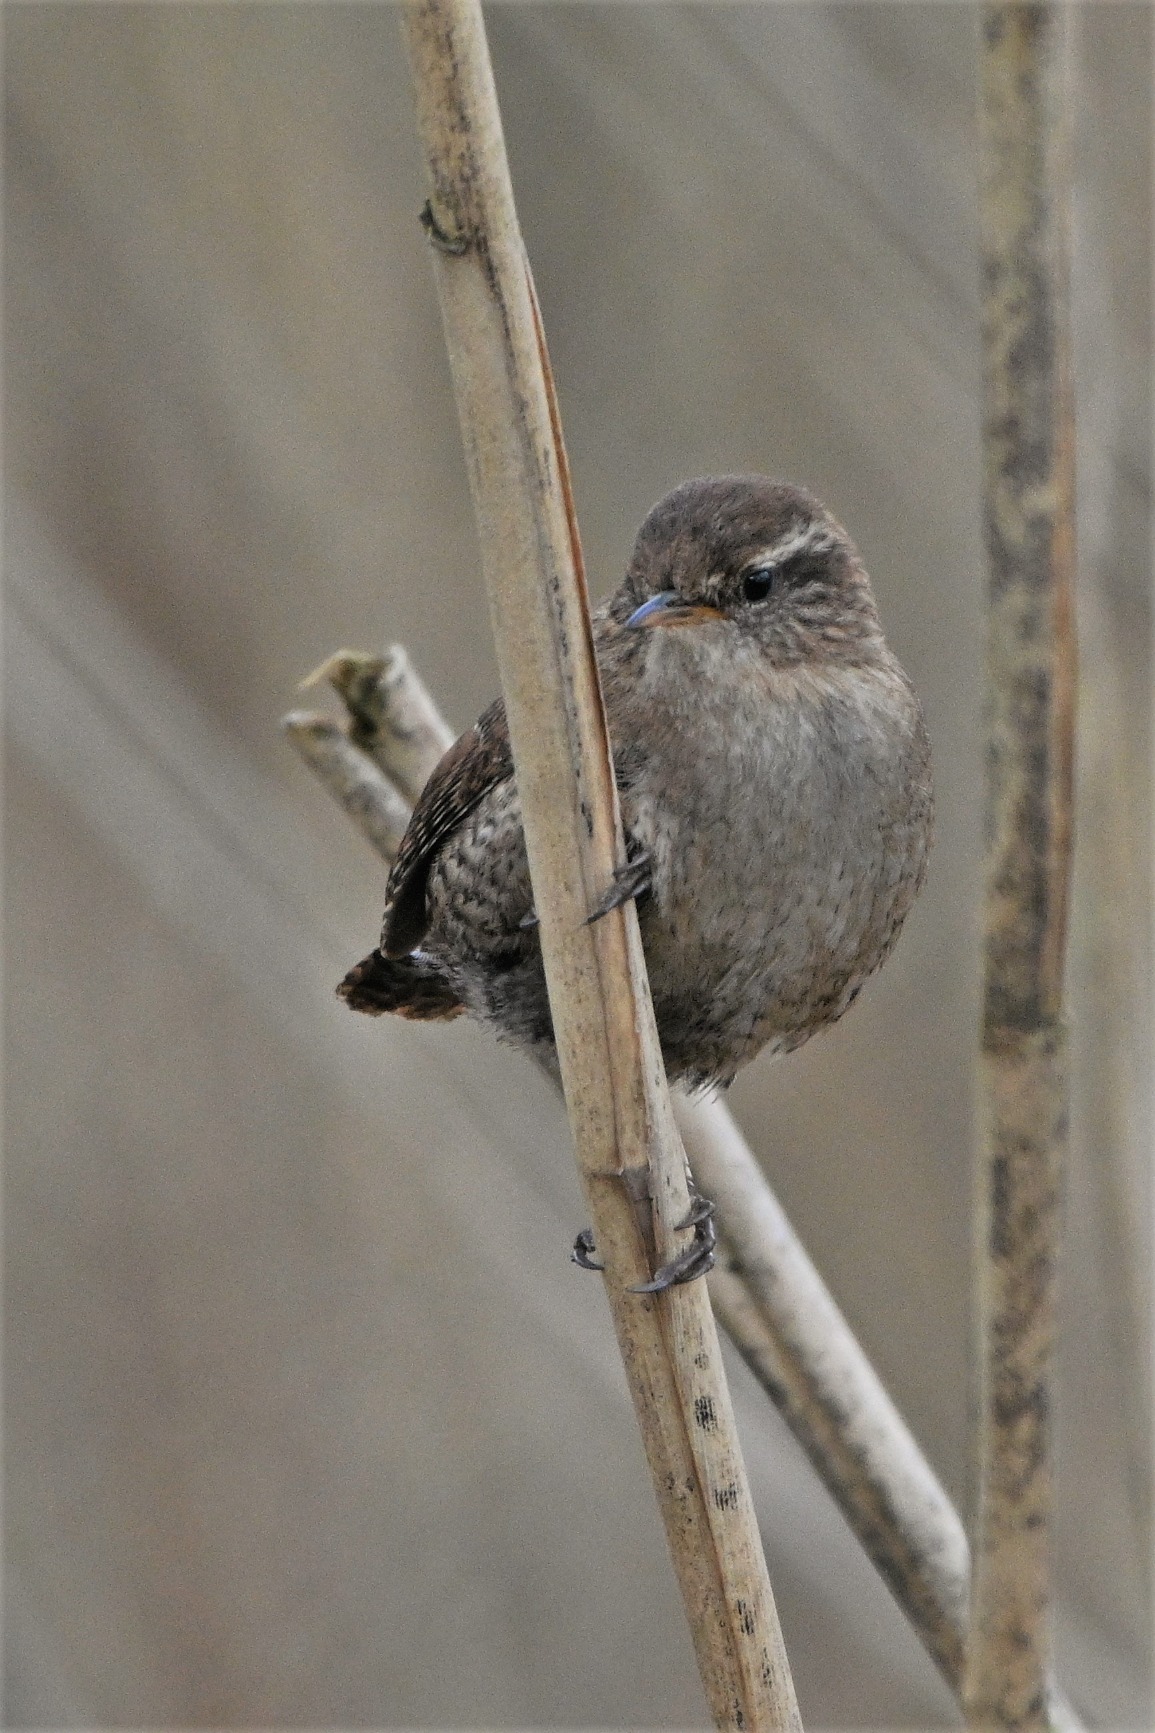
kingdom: Animalia
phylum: Chordata
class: Aves
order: Passeriformes
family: Troglodytidae
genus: Troglodytes
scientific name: Troglodytes troglodytes
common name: Gærdesmutte
